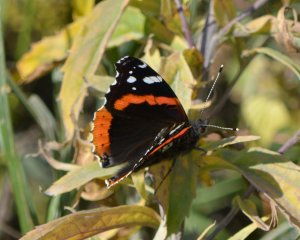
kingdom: Animalia
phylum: Arthropoda
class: Insecta
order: Lepidoptera
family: Nymphalidae
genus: Vanessa
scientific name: Vanessa atalanta
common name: Red Admiral
